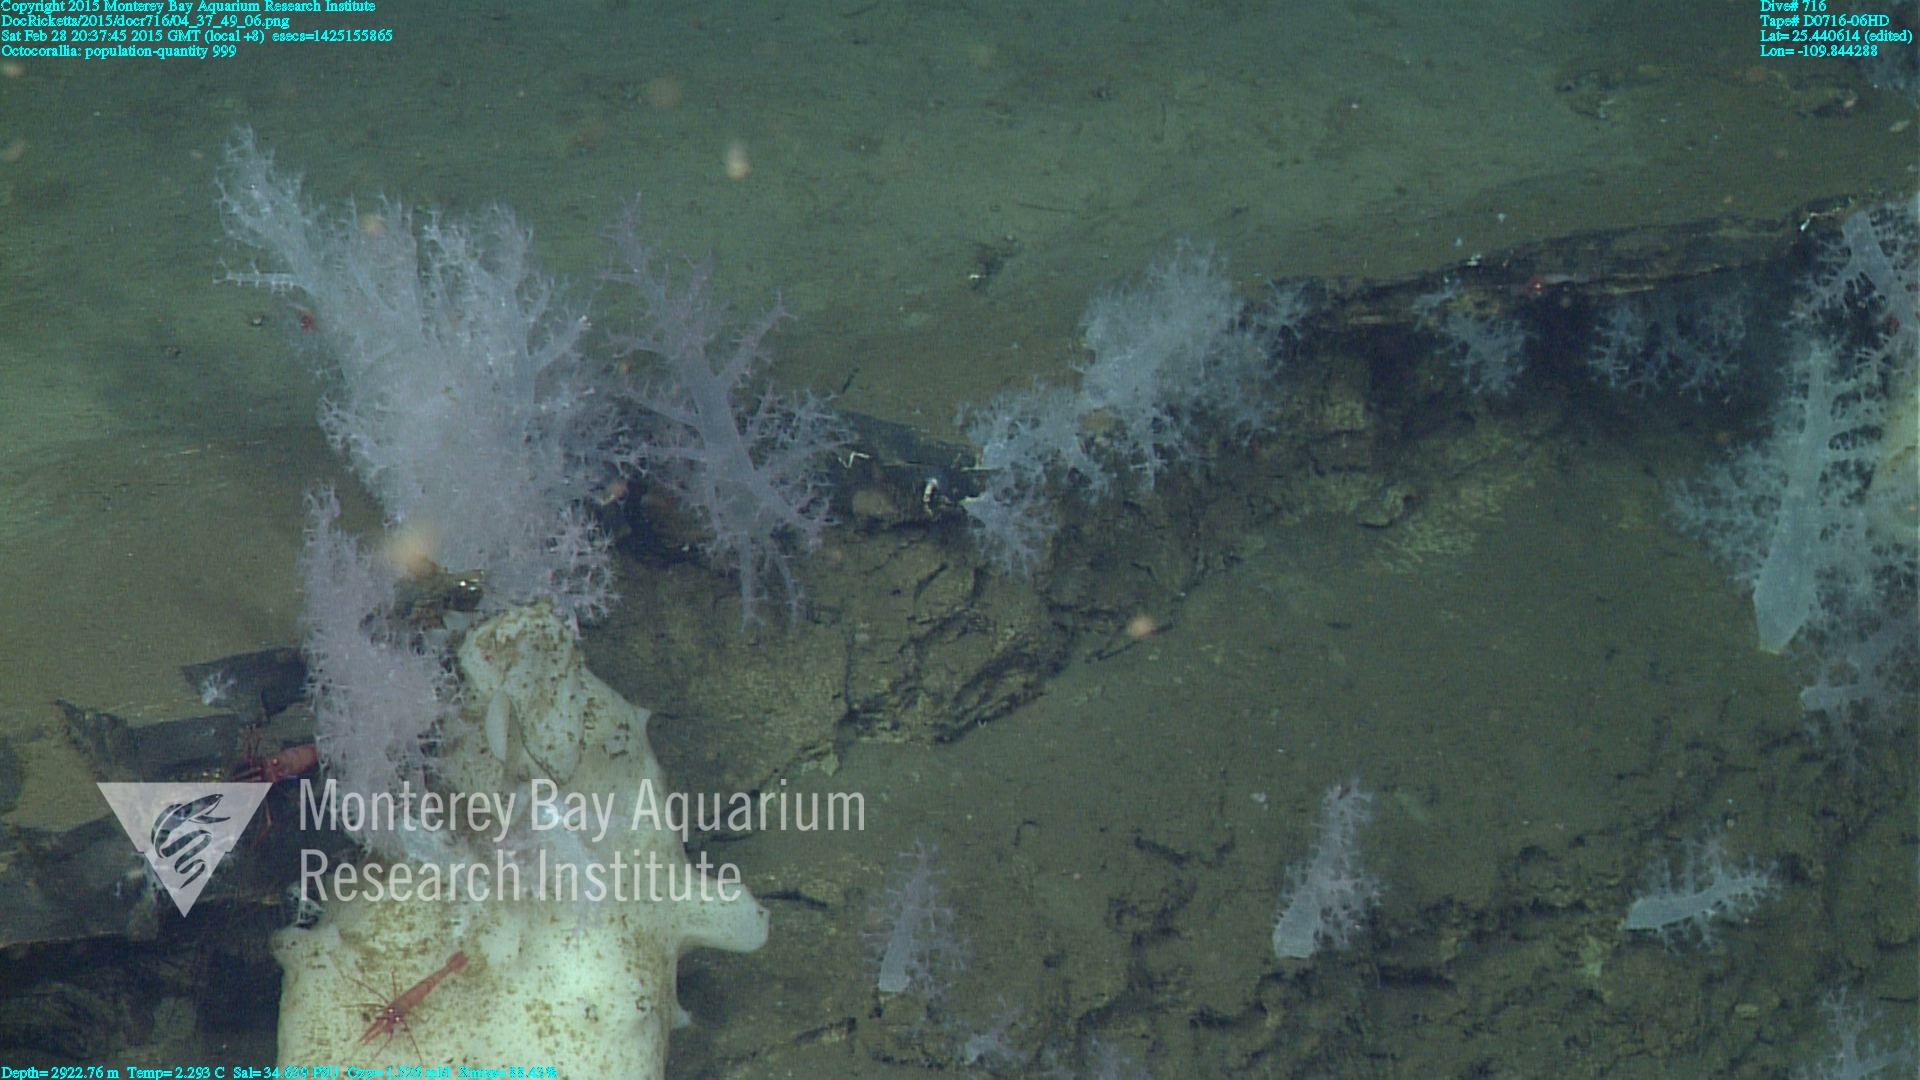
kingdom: Animalia
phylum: Cnidaria
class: Anthozoa
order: Malacalcyonacea
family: Alcyoniidae
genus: Gersemia
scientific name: Gersemia juliepackardae
